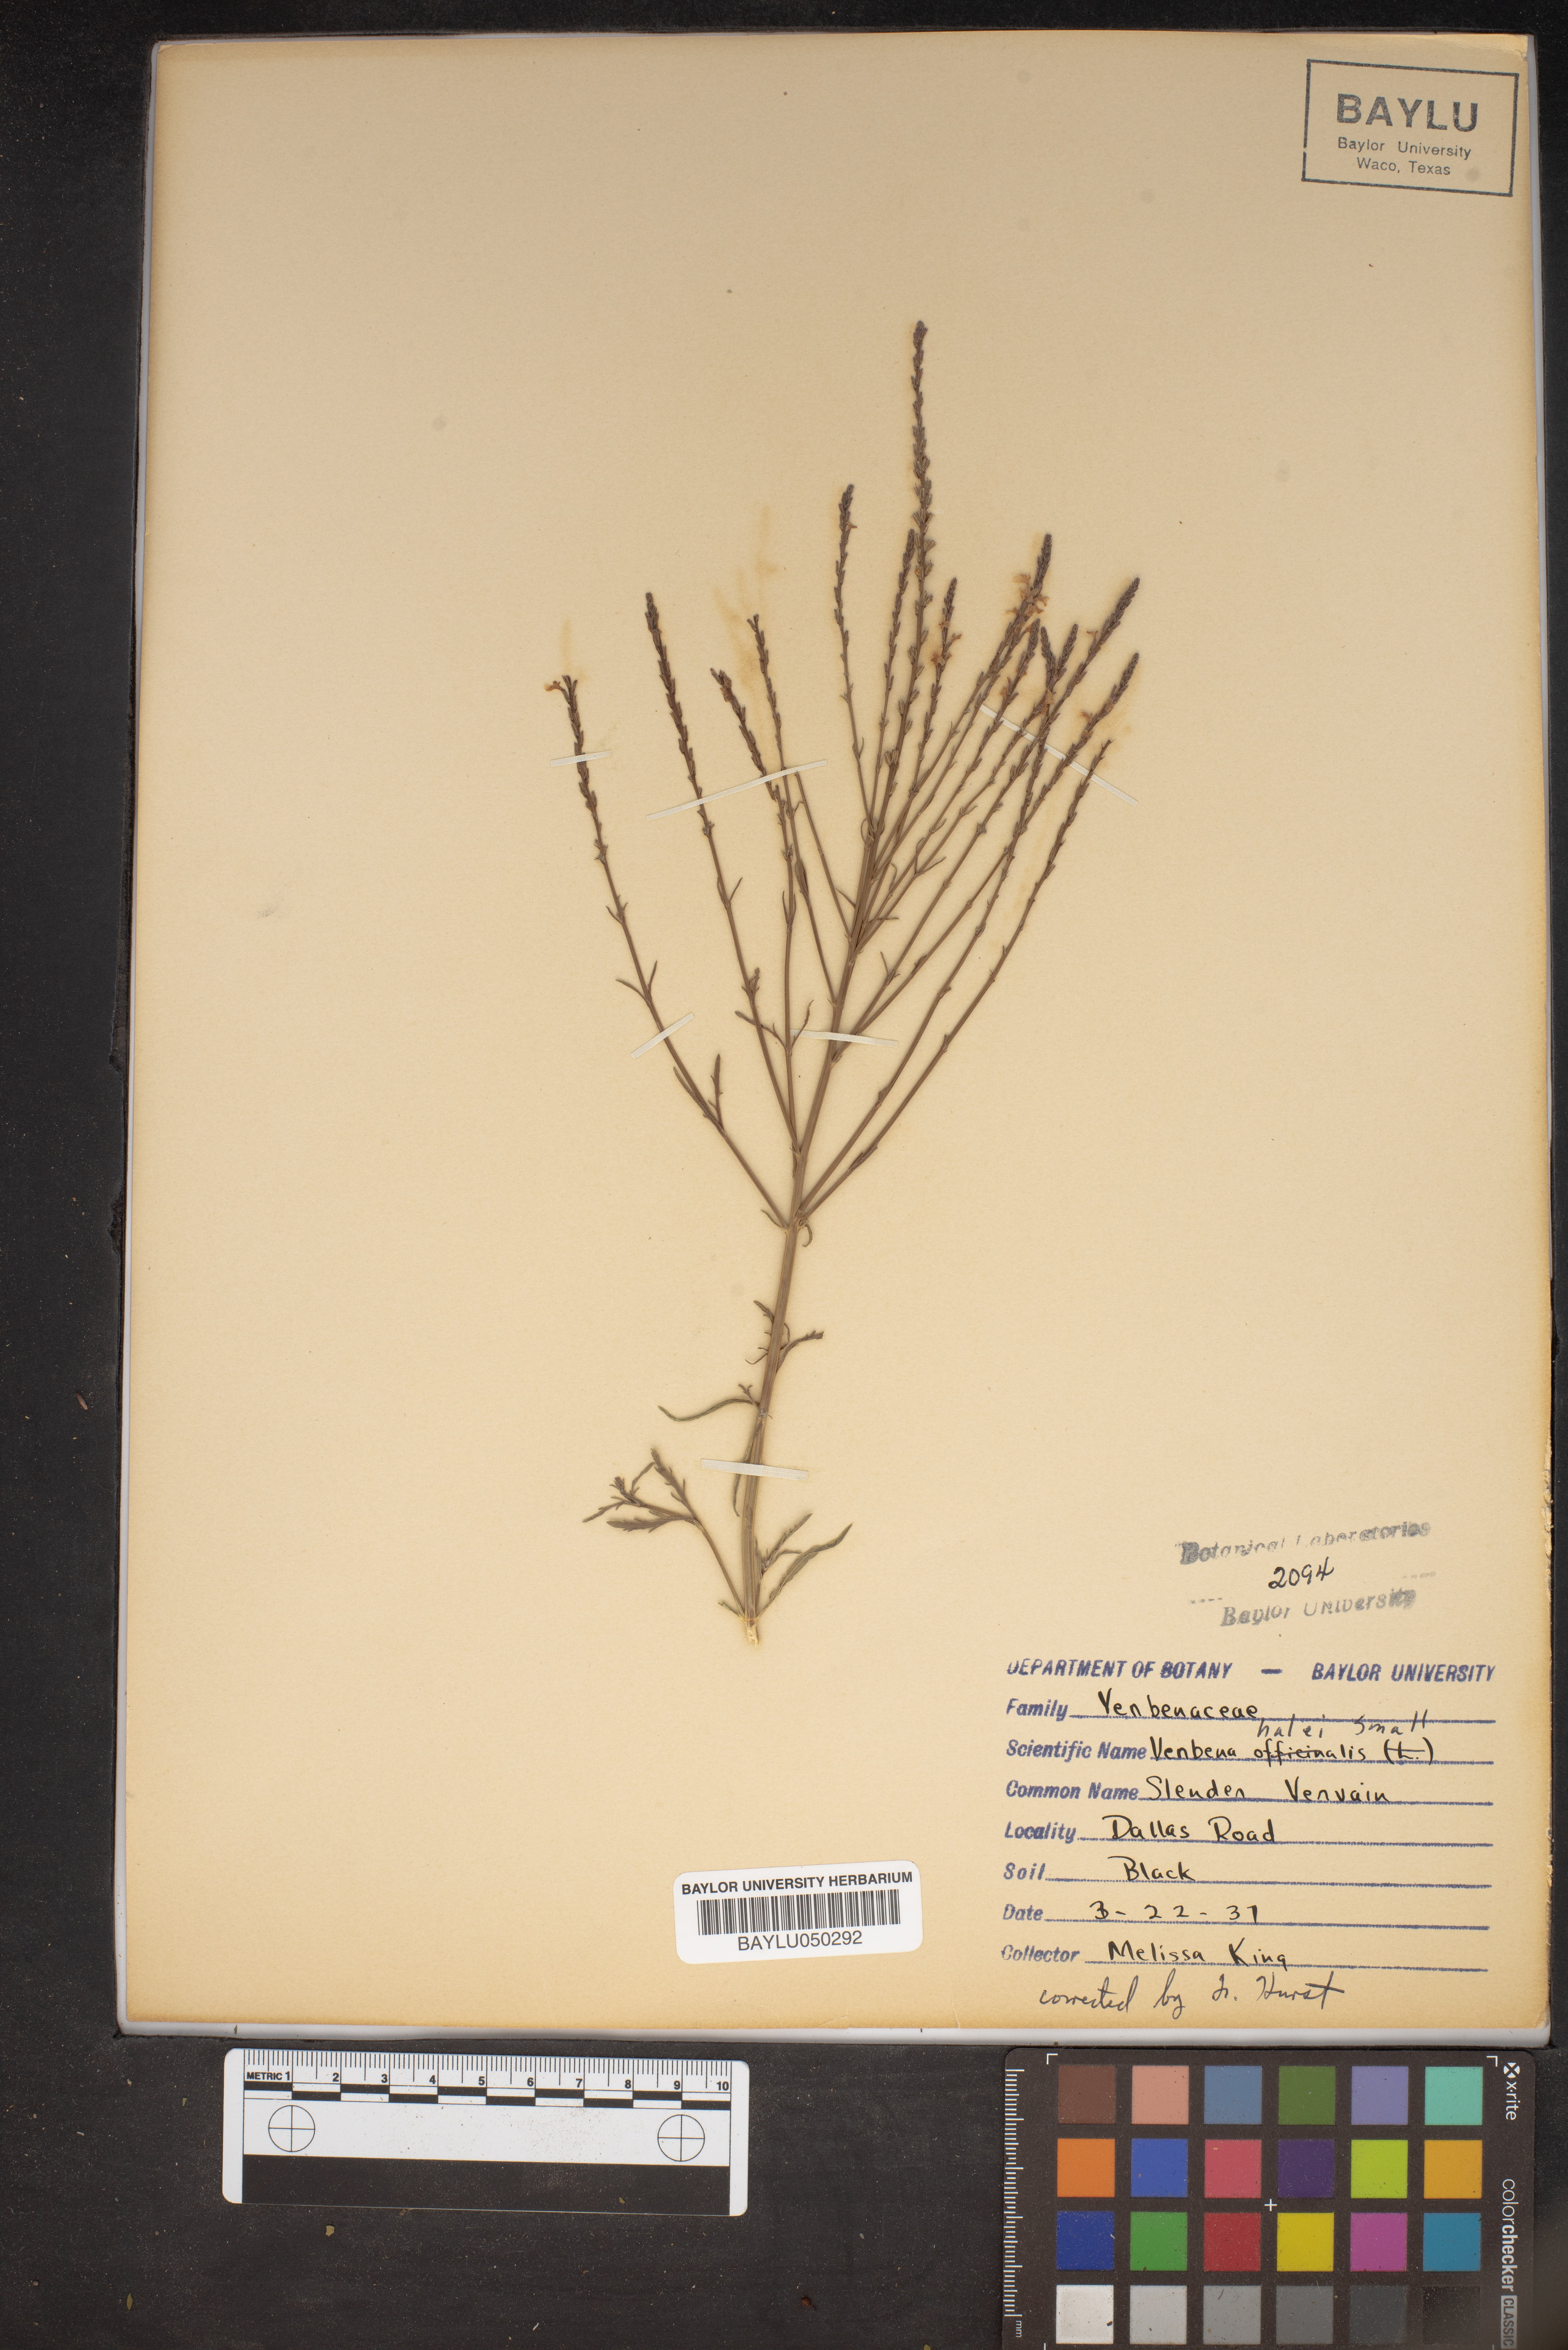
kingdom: Plantae
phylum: Tracheophyta
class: Magnoliopsida
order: Lamiales
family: Verbenaceae
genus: Verbena
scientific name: Verbena halei
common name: Texas vervain
